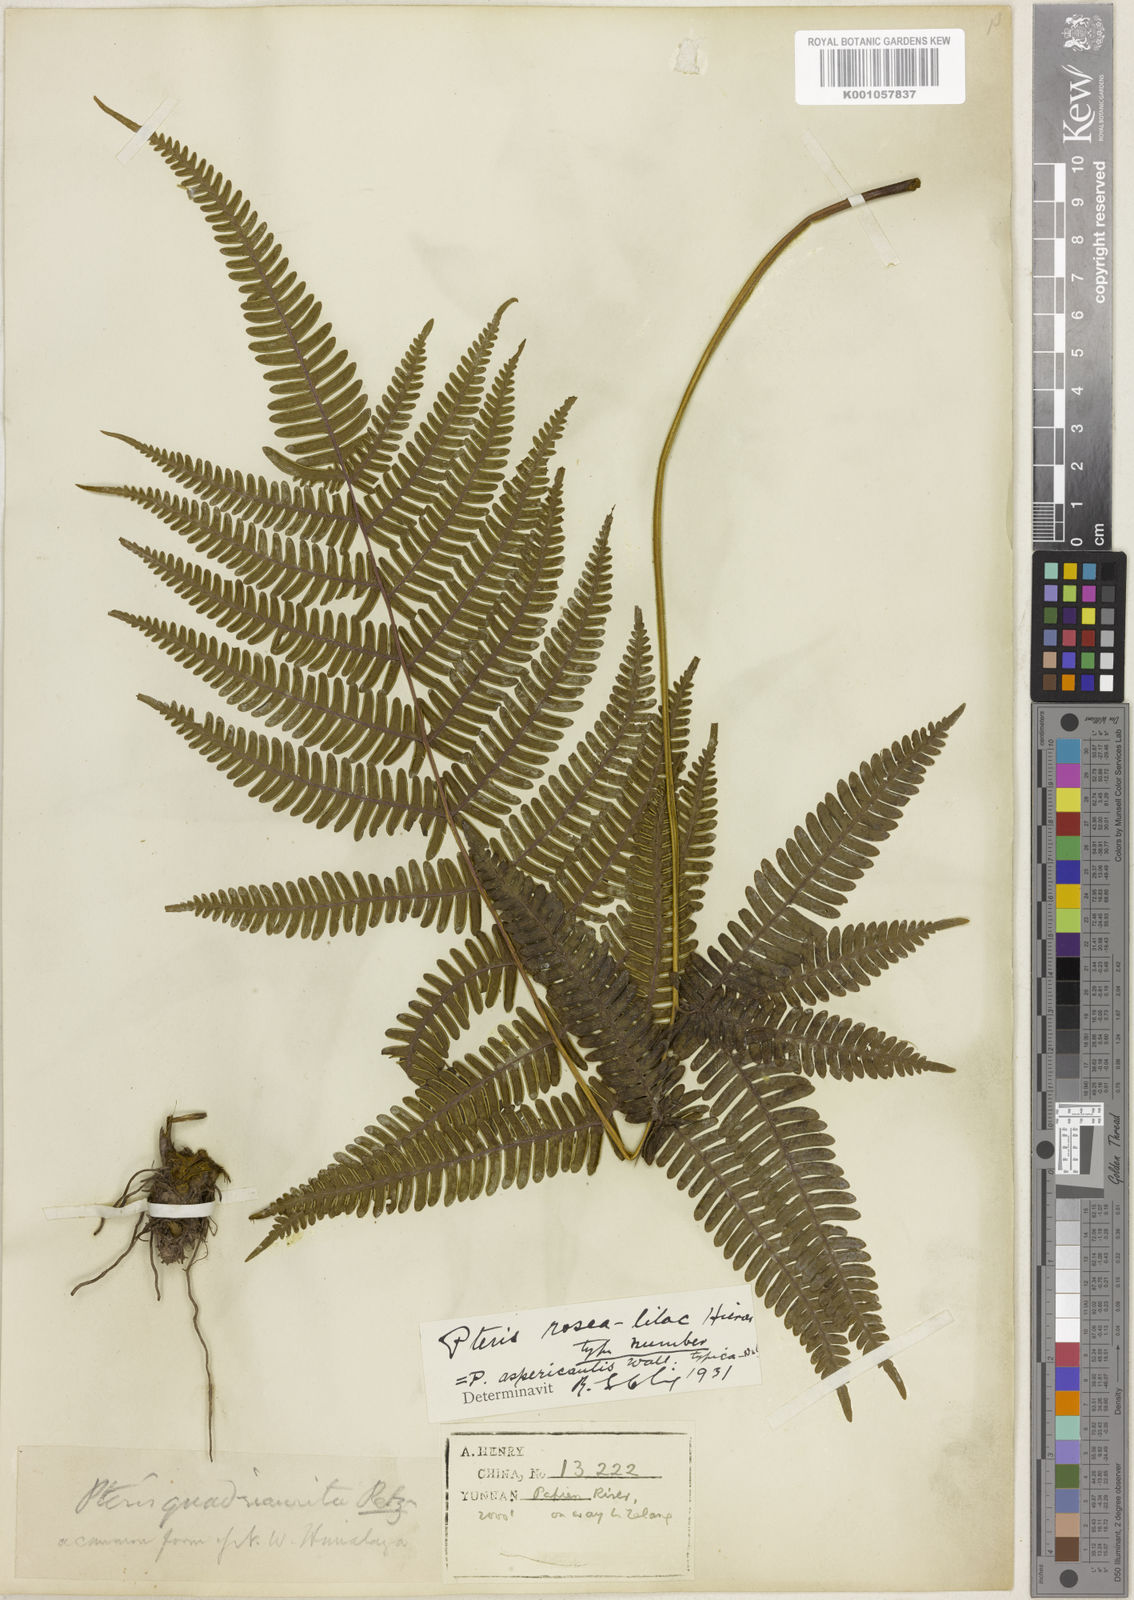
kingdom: Plantae
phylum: Tracheophyta
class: Polypodiopsida
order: Polypodiales
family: Pteridaceae
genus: Pteris
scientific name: Pteris amoena
